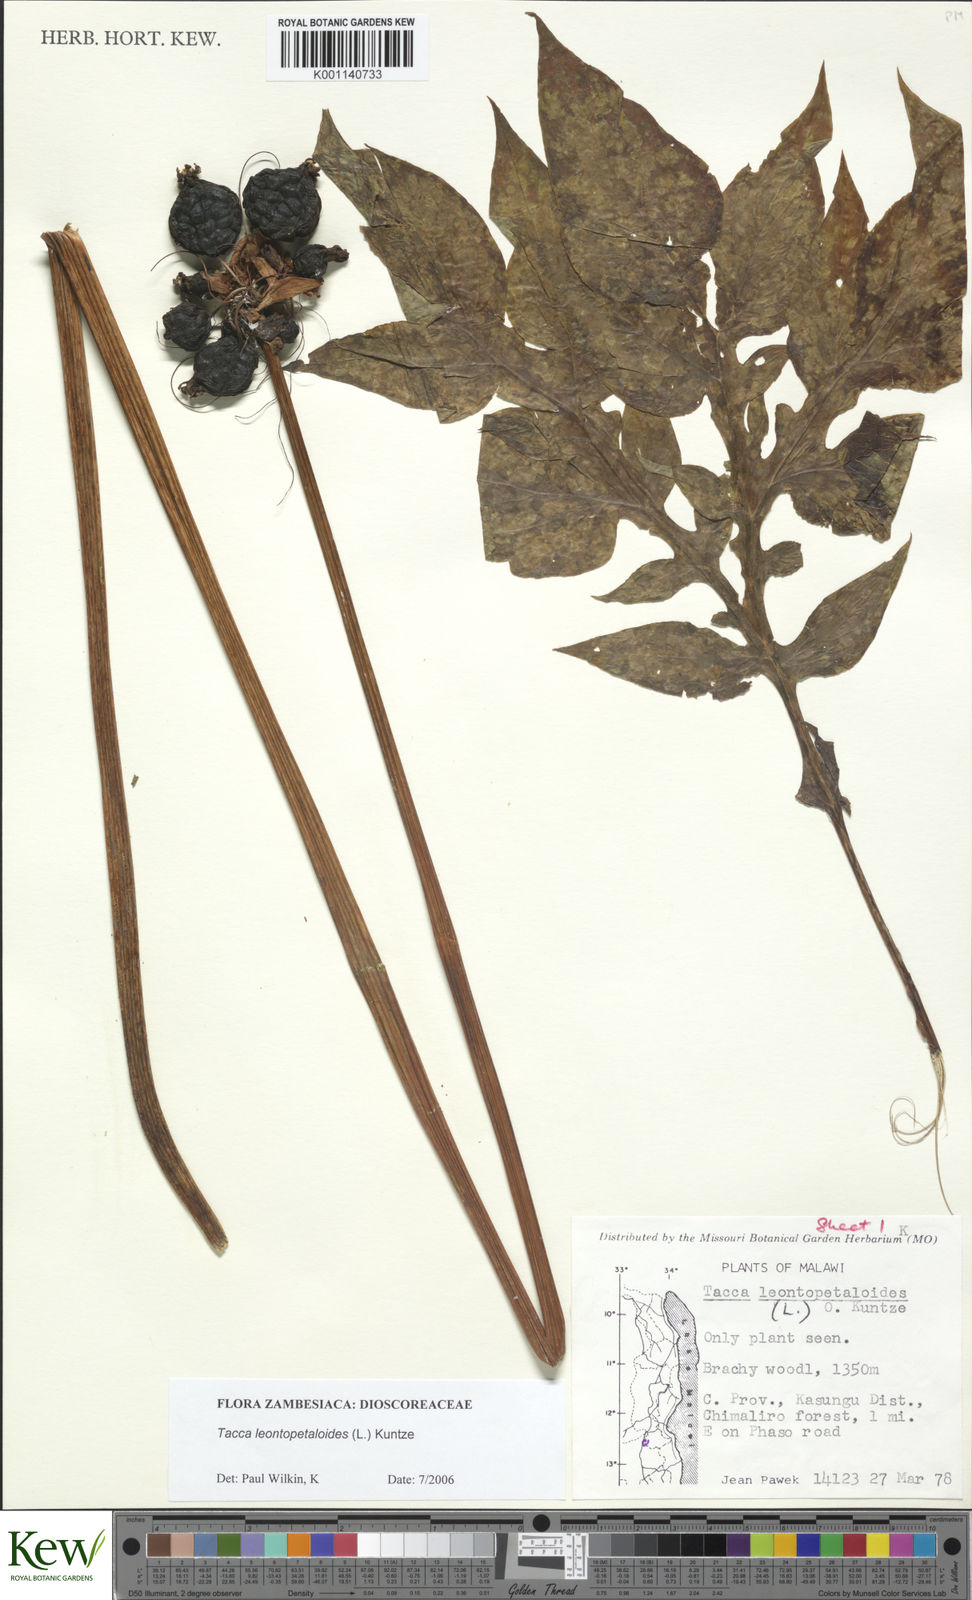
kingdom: Plantae
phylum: Tracheophyta
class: Liliopsida
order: Dioscoreales
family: Dioscoreaceae
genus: Tacca
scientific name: Tacca leontopetaloides
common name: Arrowroot
